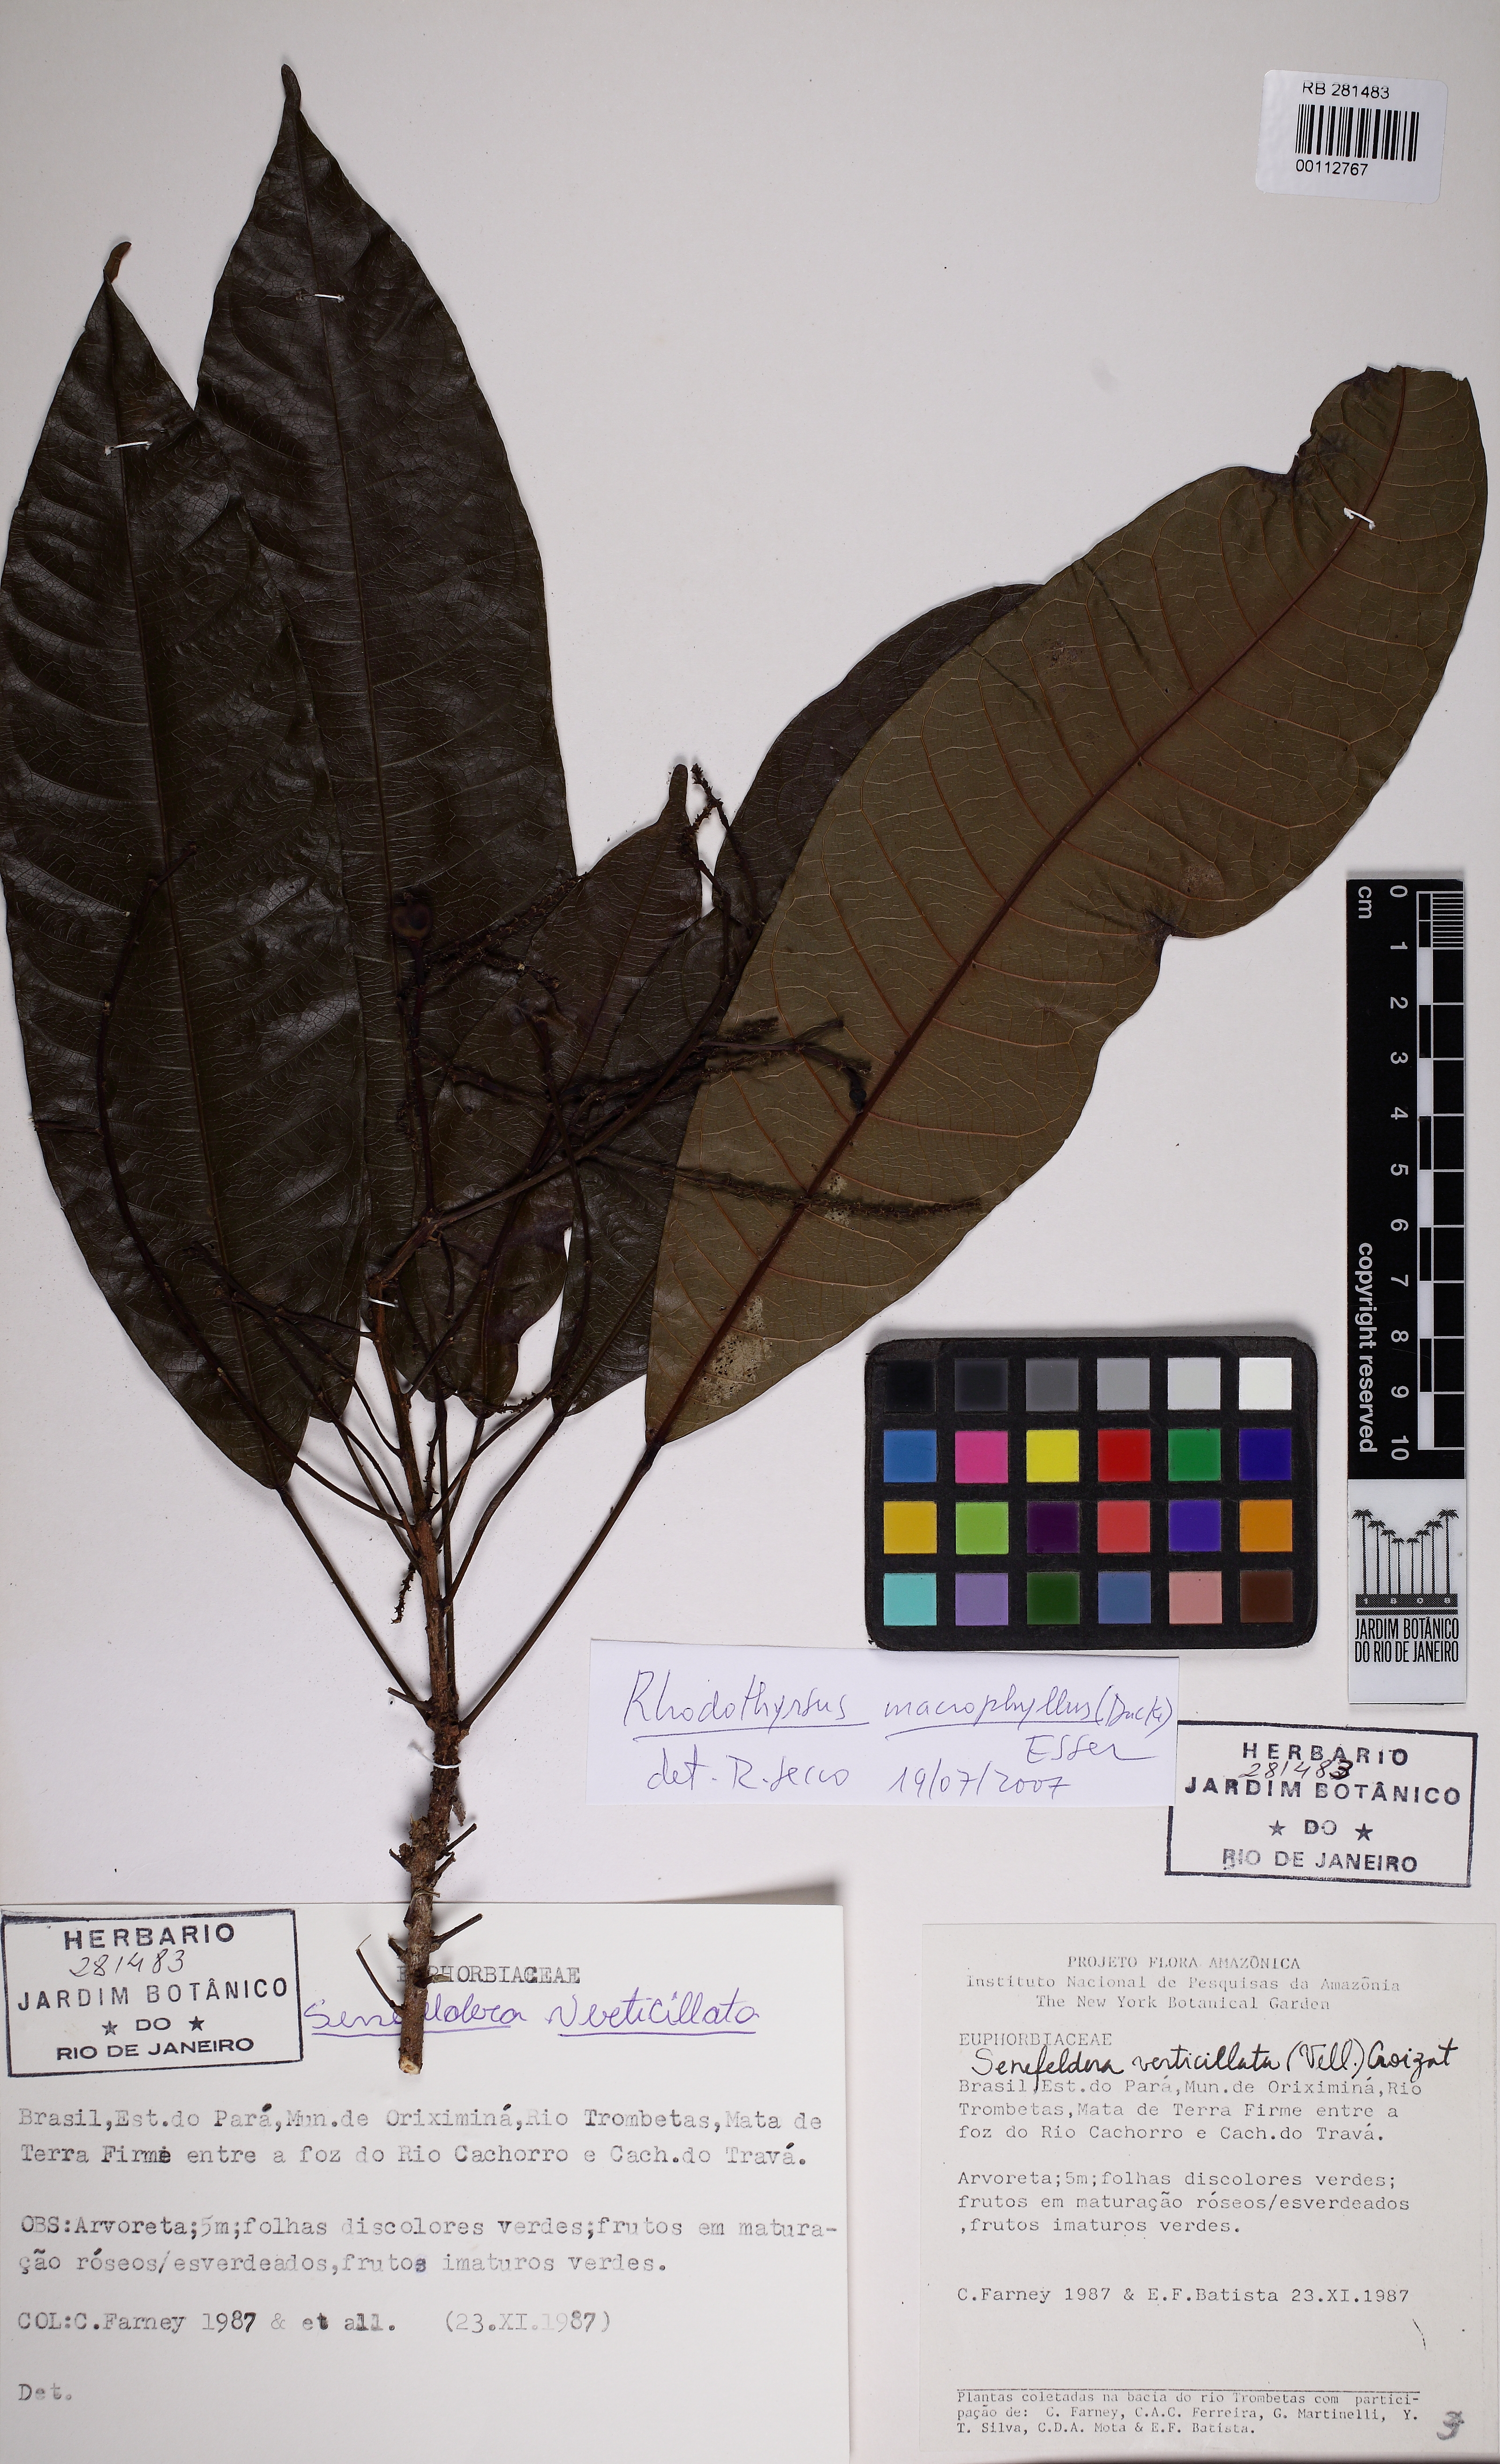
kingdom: Plantae
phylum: Tracheophyta
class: Magnoliopsida
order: Malpighiales
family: Euphorbiaceae
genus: Rhodothyrsus
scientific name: Rhodothyrsus macrophyllus
